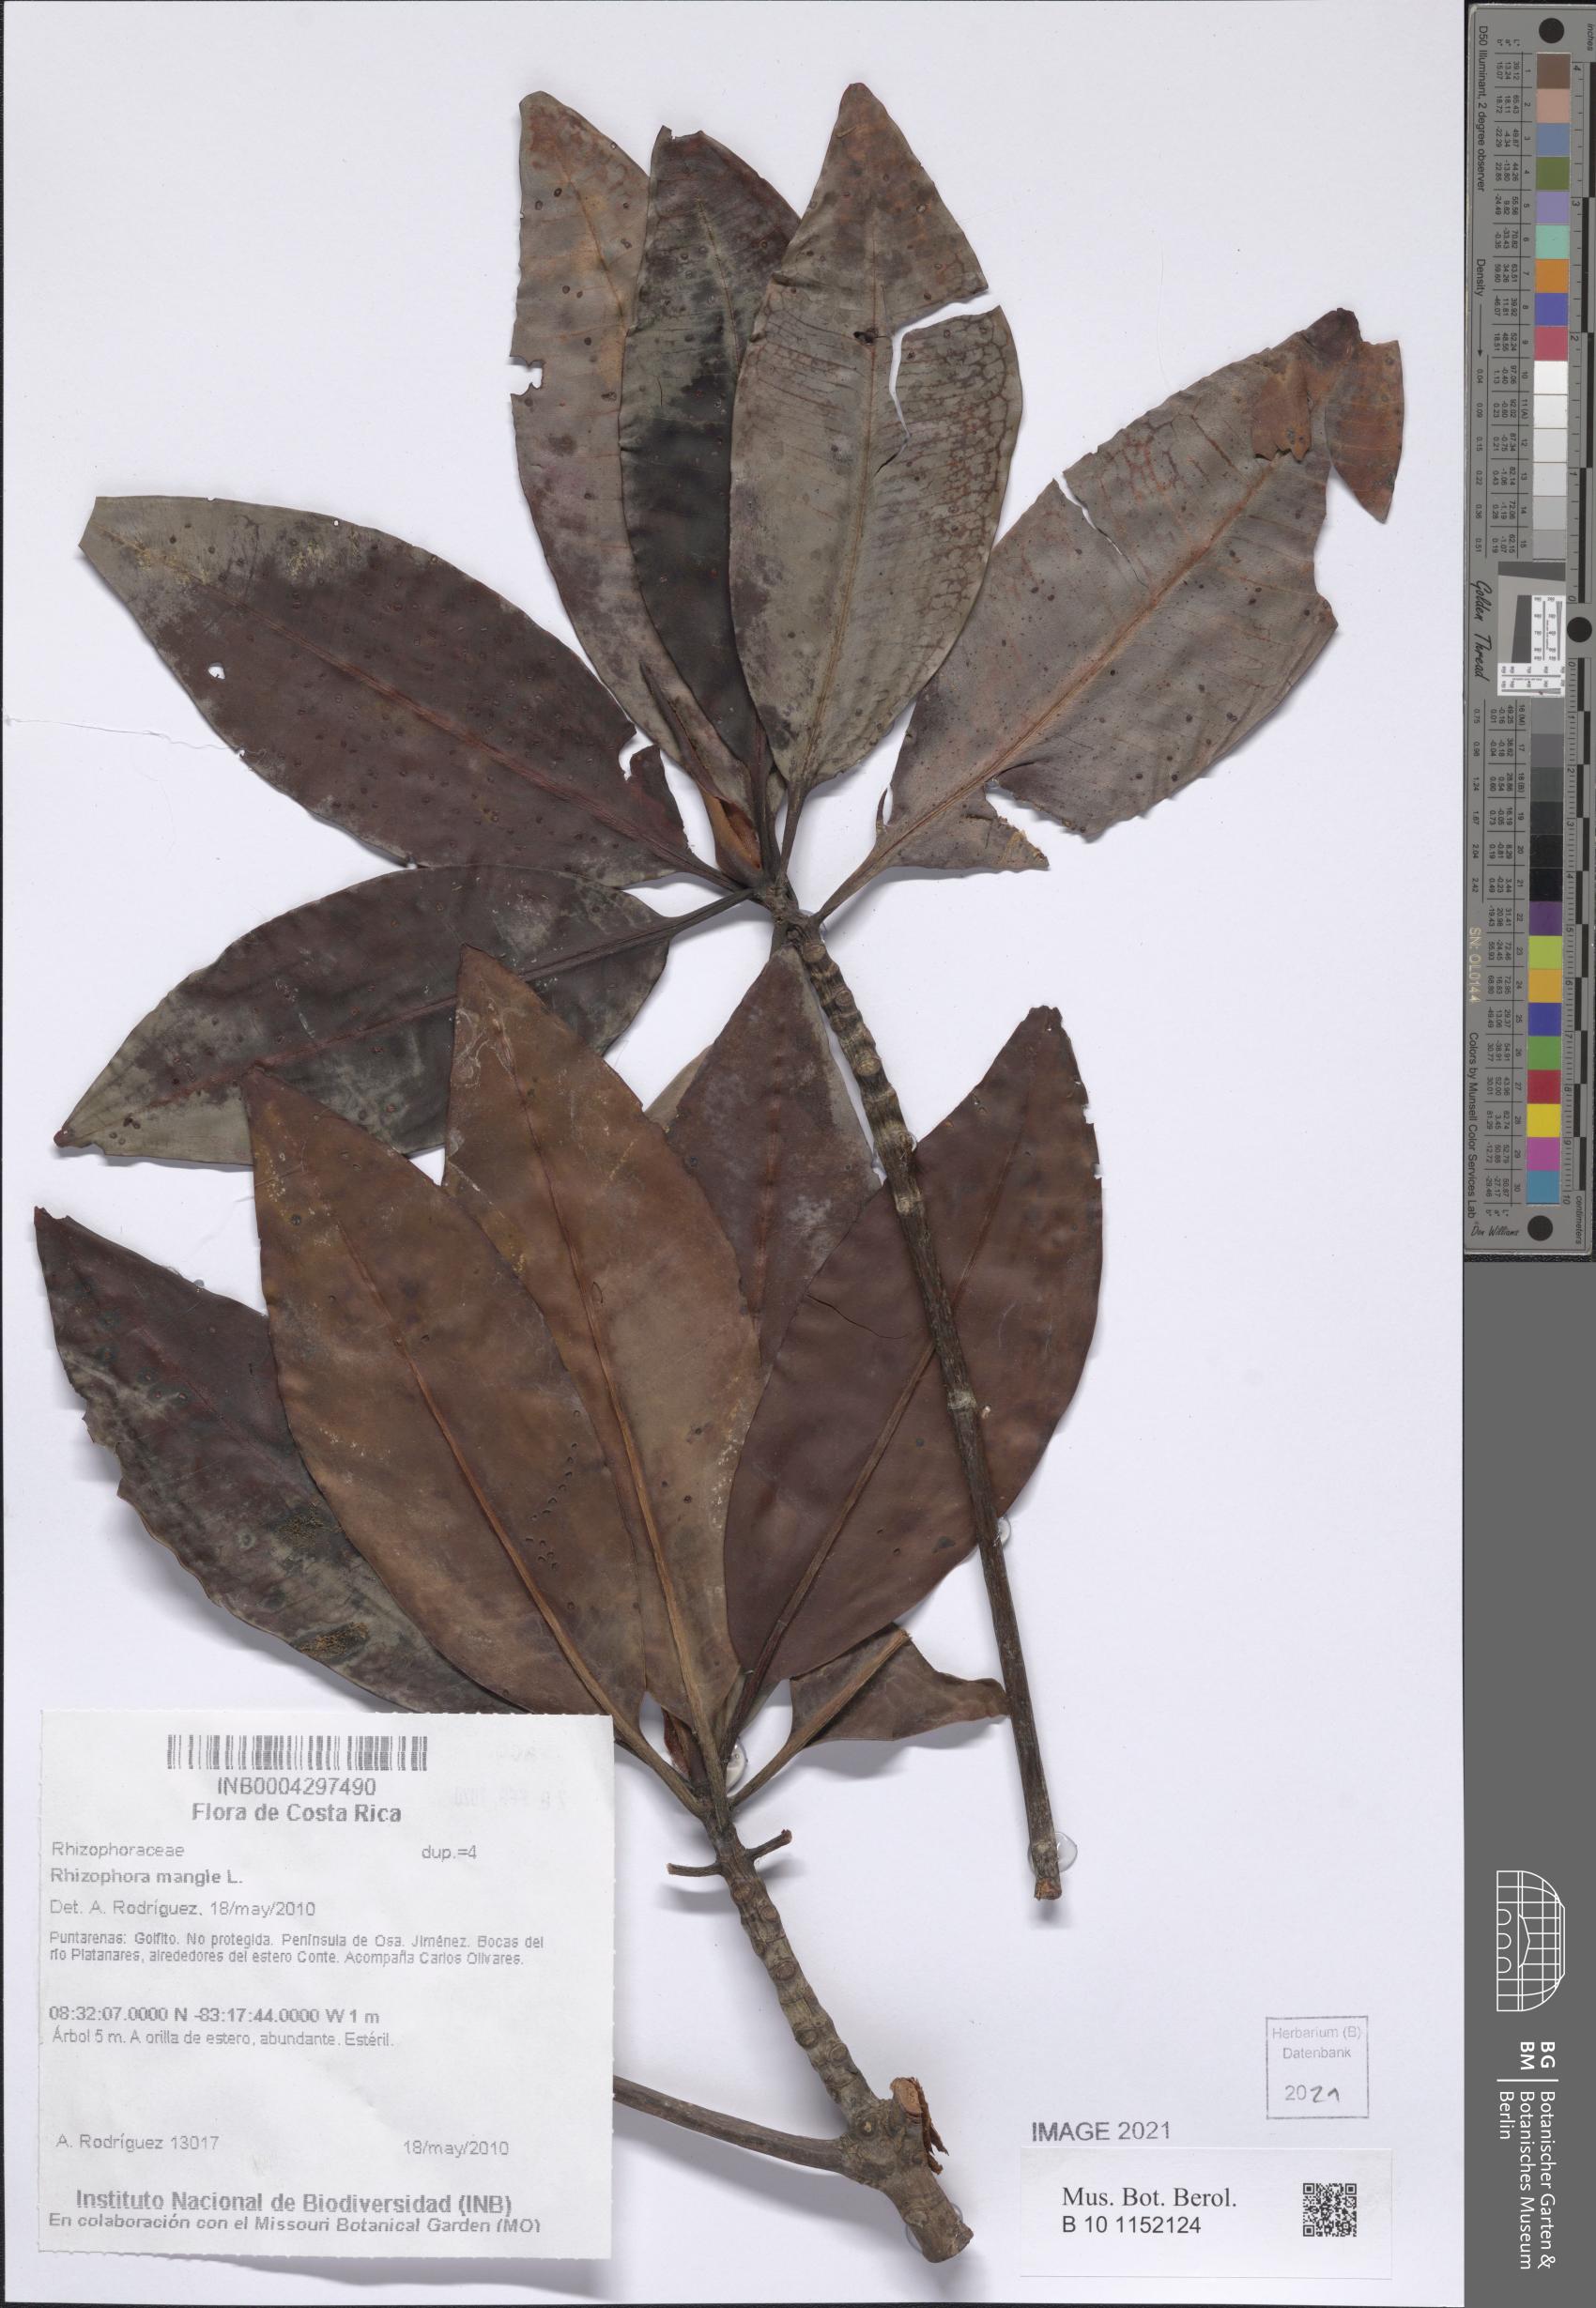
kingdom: Plantae
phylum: Tracheophyta
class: Magnoliopsida
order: Malpighiales
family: Rhizophoraceae
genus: Rhizophora
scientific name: Rhizophora racemosa
